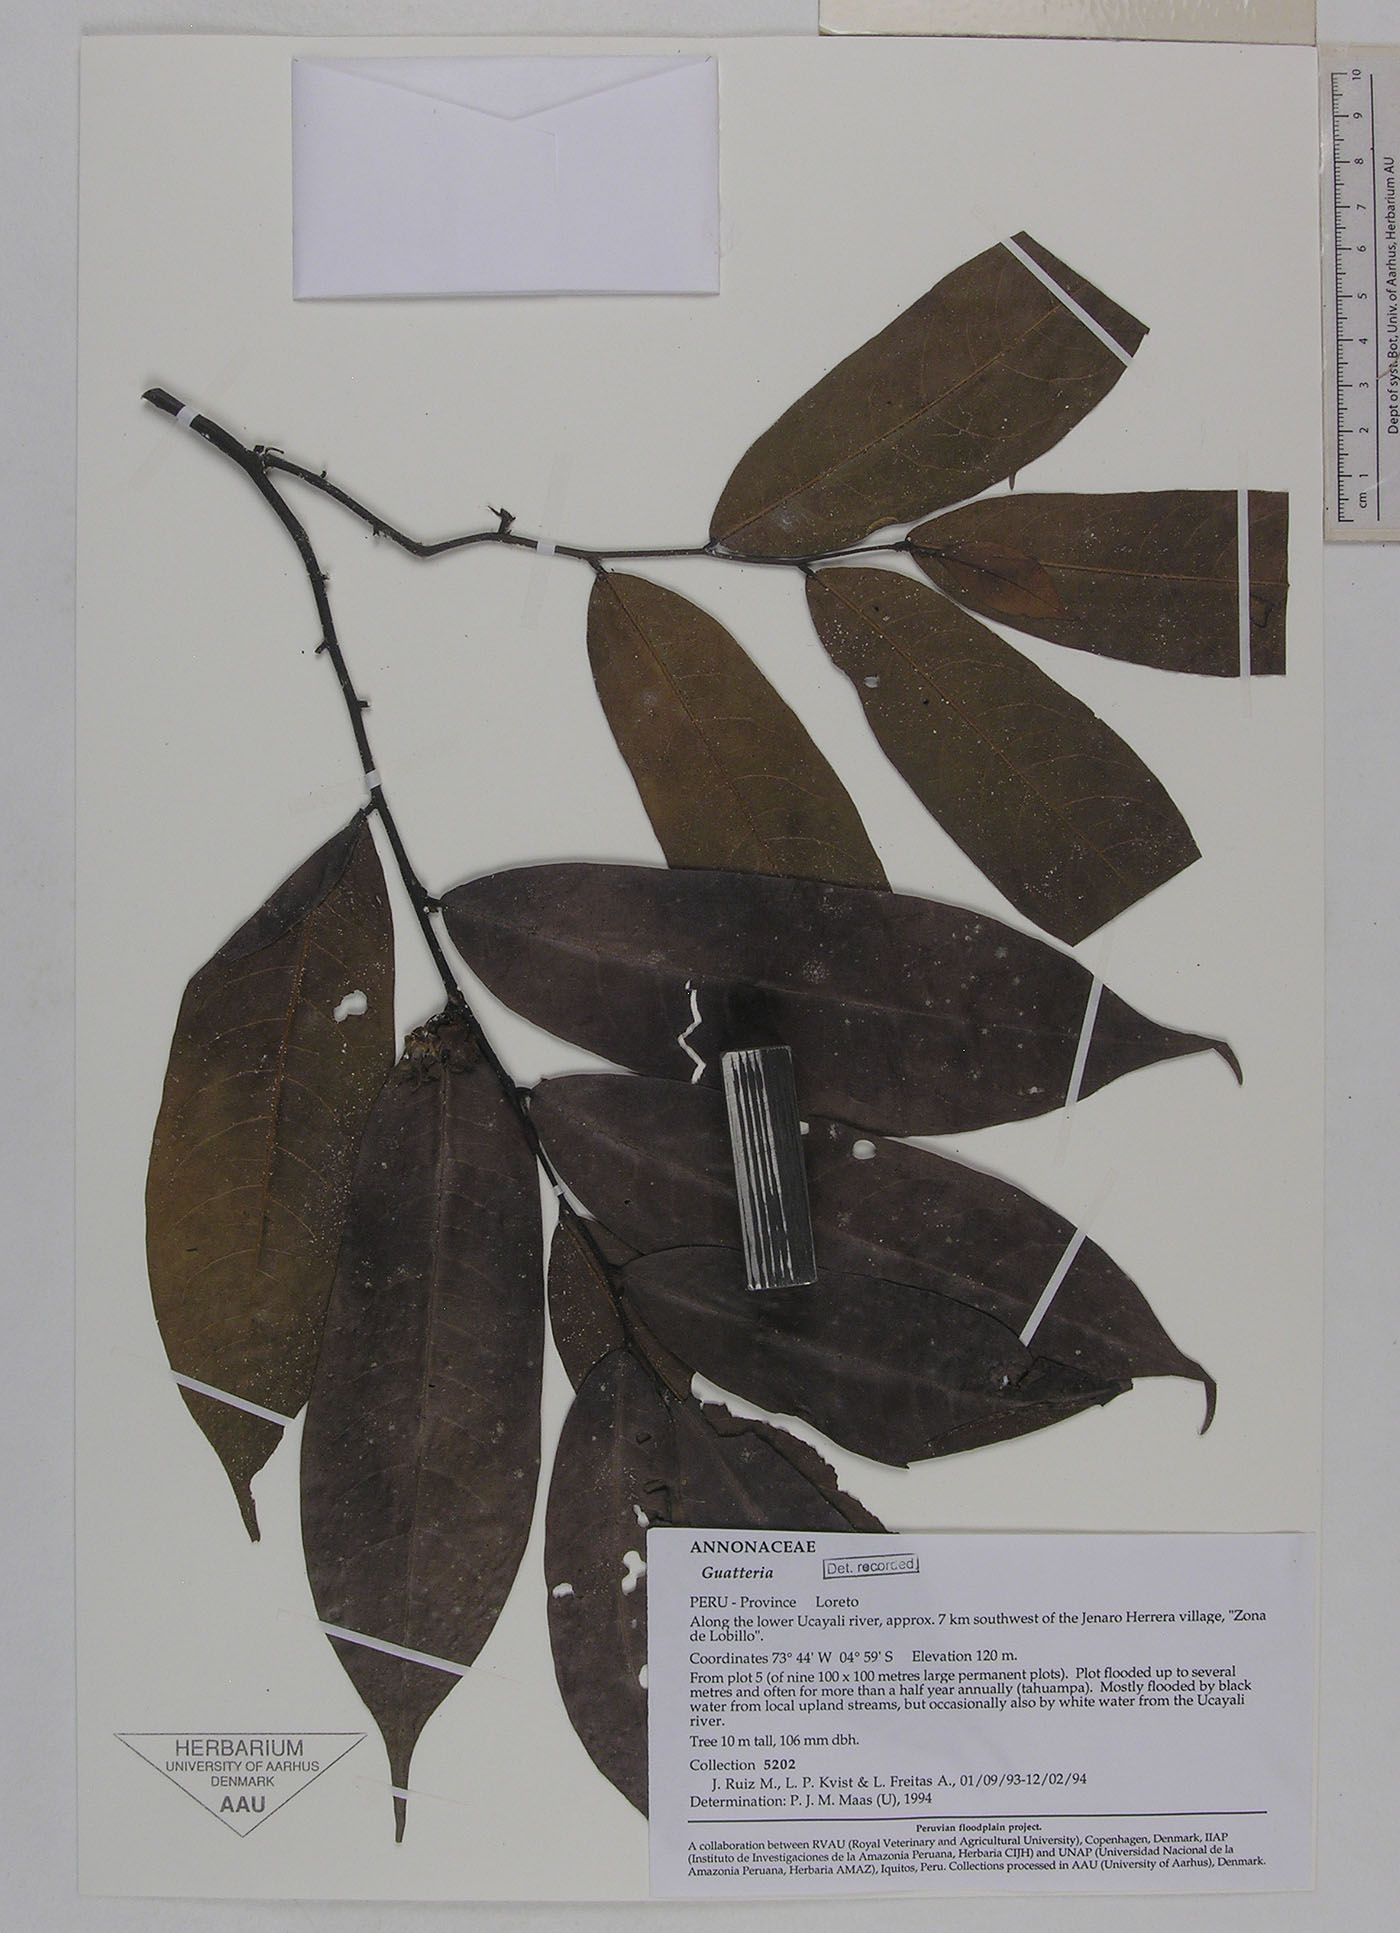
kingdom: Plantae
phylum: Tracheophyta
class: Magnoliopsida
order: Magnoliales
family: Annonaceae
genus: Guatteria
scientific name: Guatteria hirsuta
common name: Laurel
